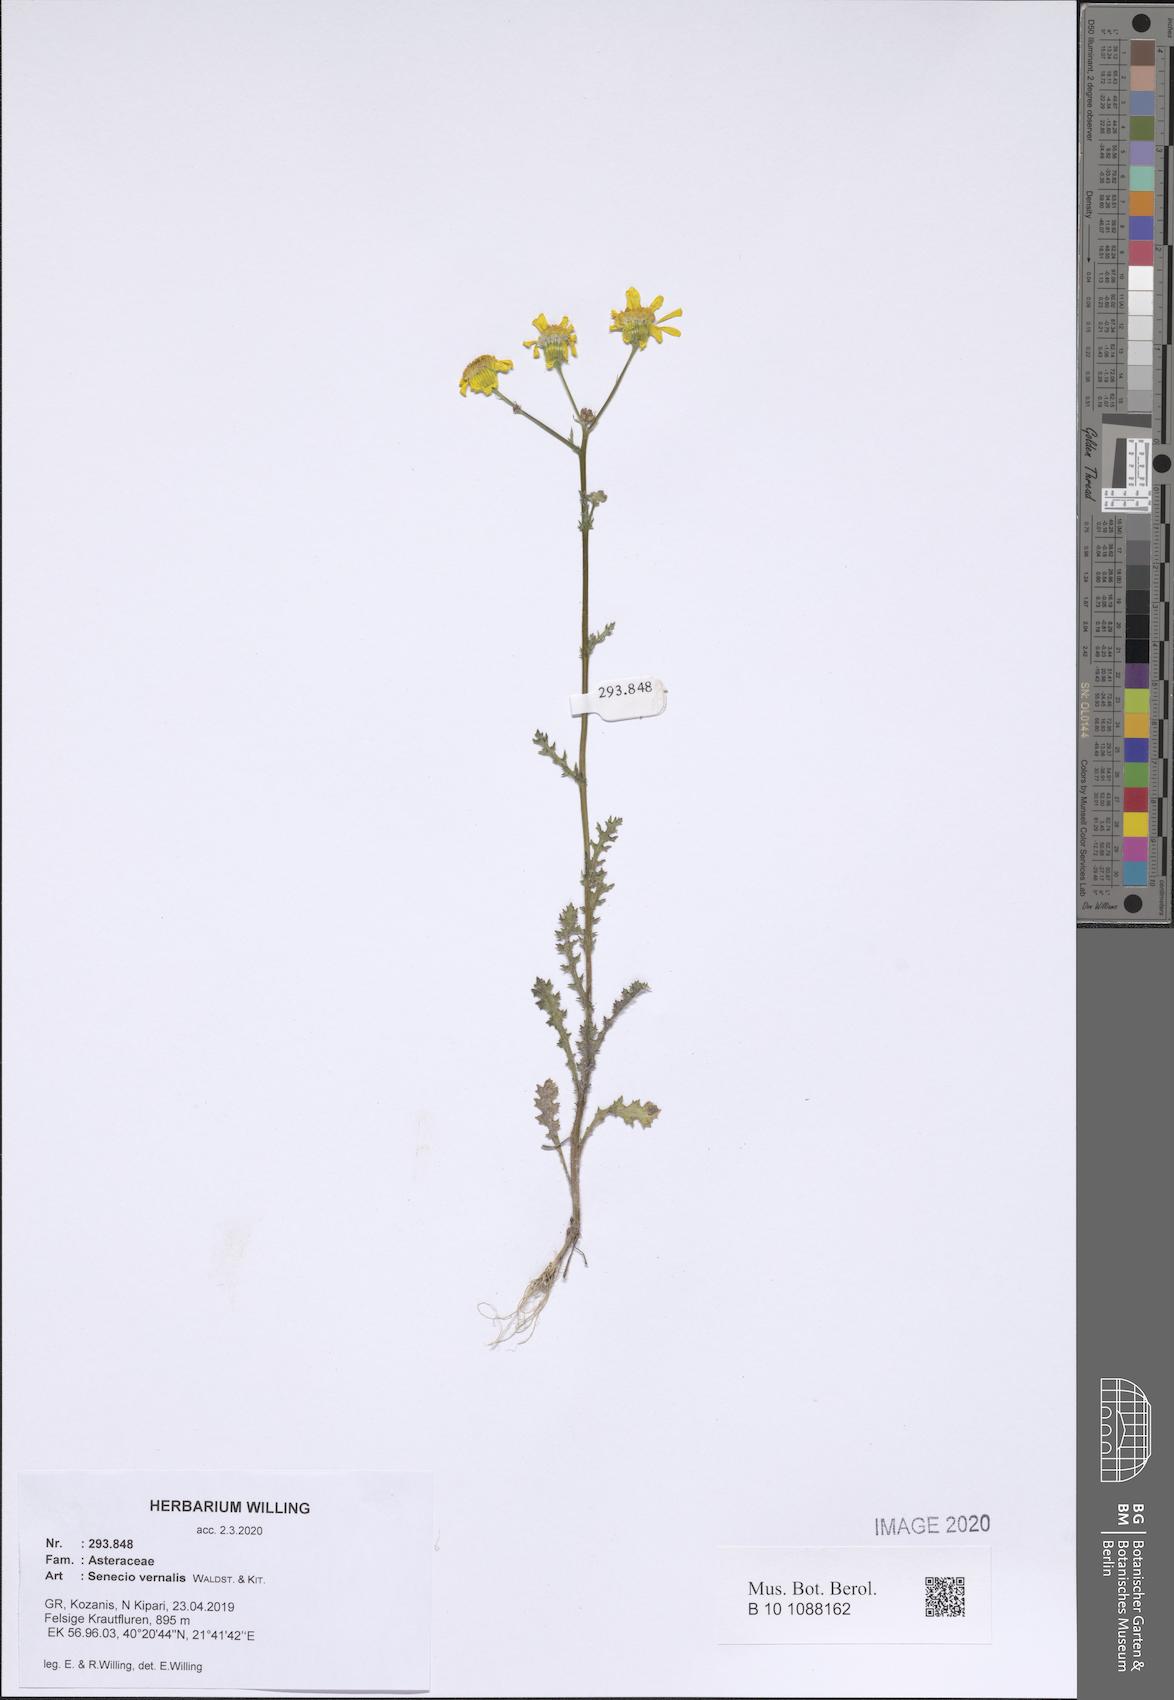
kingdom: Plantae
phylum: Tracheophyta
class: Magnoliopsida
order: Asterales
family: Asteraceae
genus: Senecio
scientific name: Senecio vernalis
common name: Eastern groundsel
